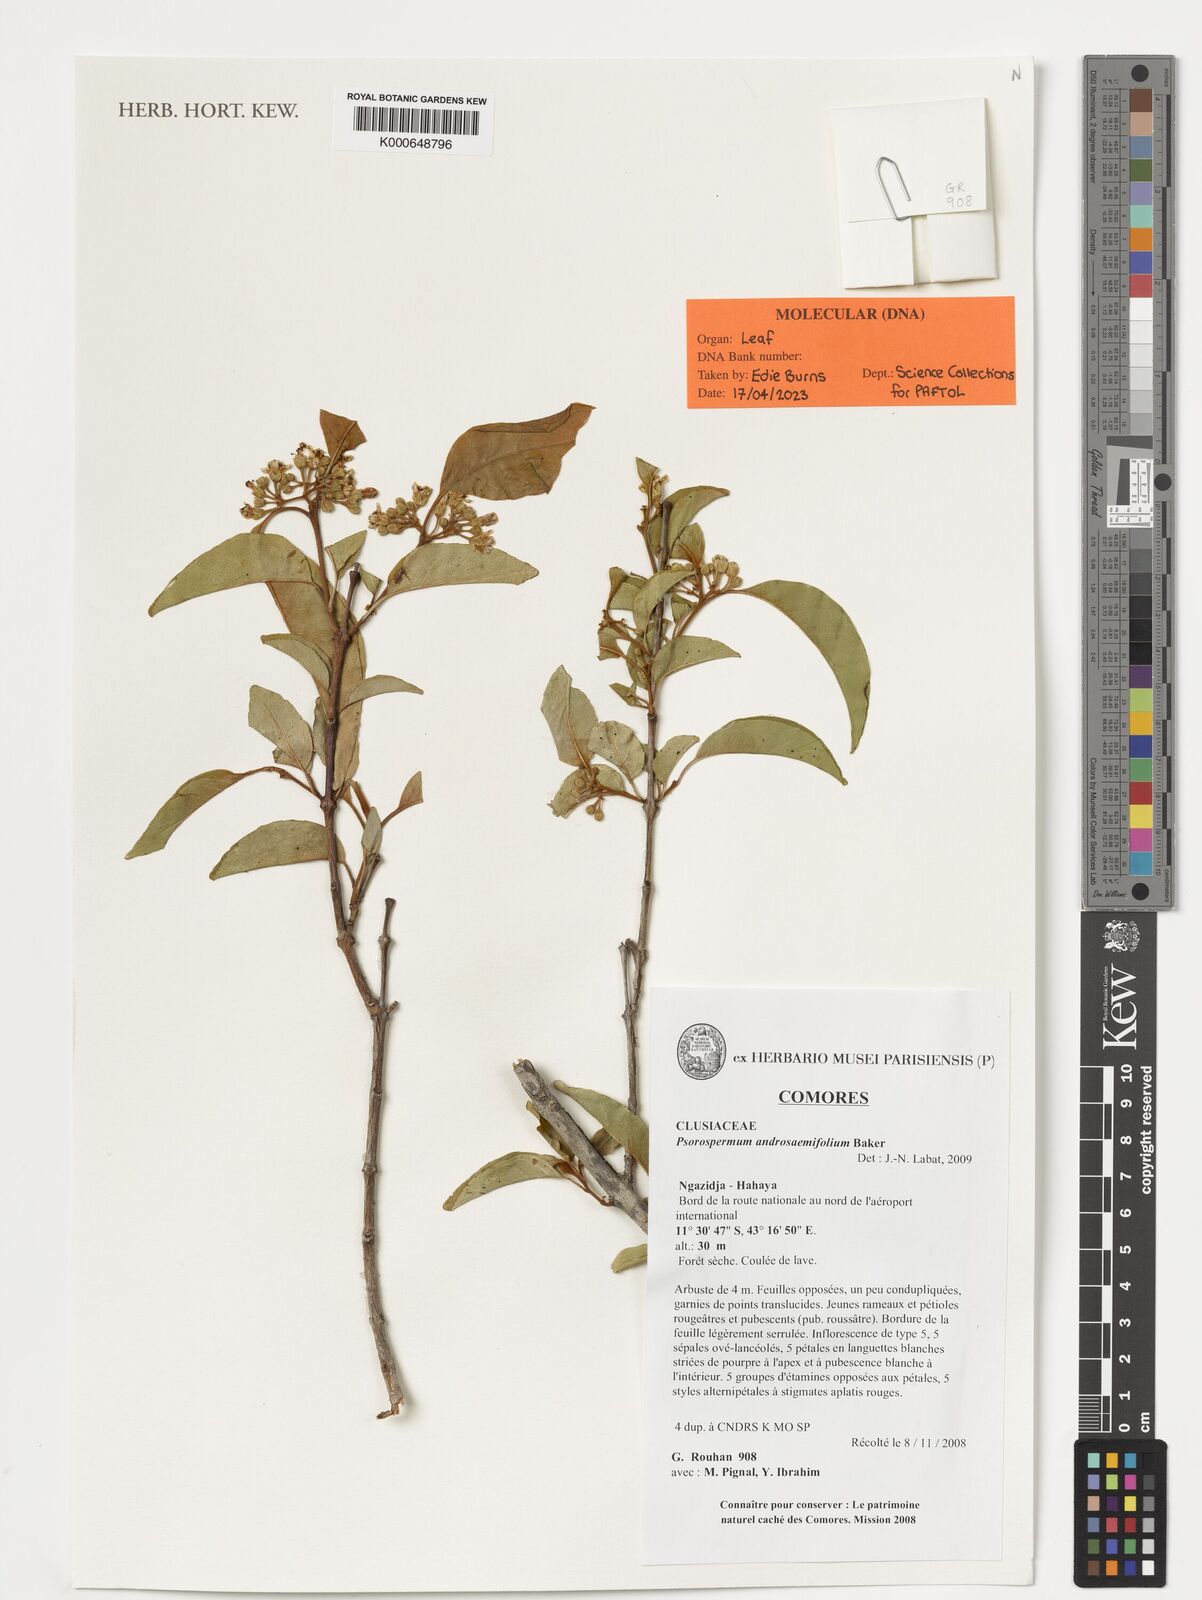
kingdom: Plantae
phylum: Tracheophyta
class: Magnoliopsida
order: Malpighiales
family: Hypericaceae
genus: Psorospermum
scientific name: Psorospermum androsaemifolium
